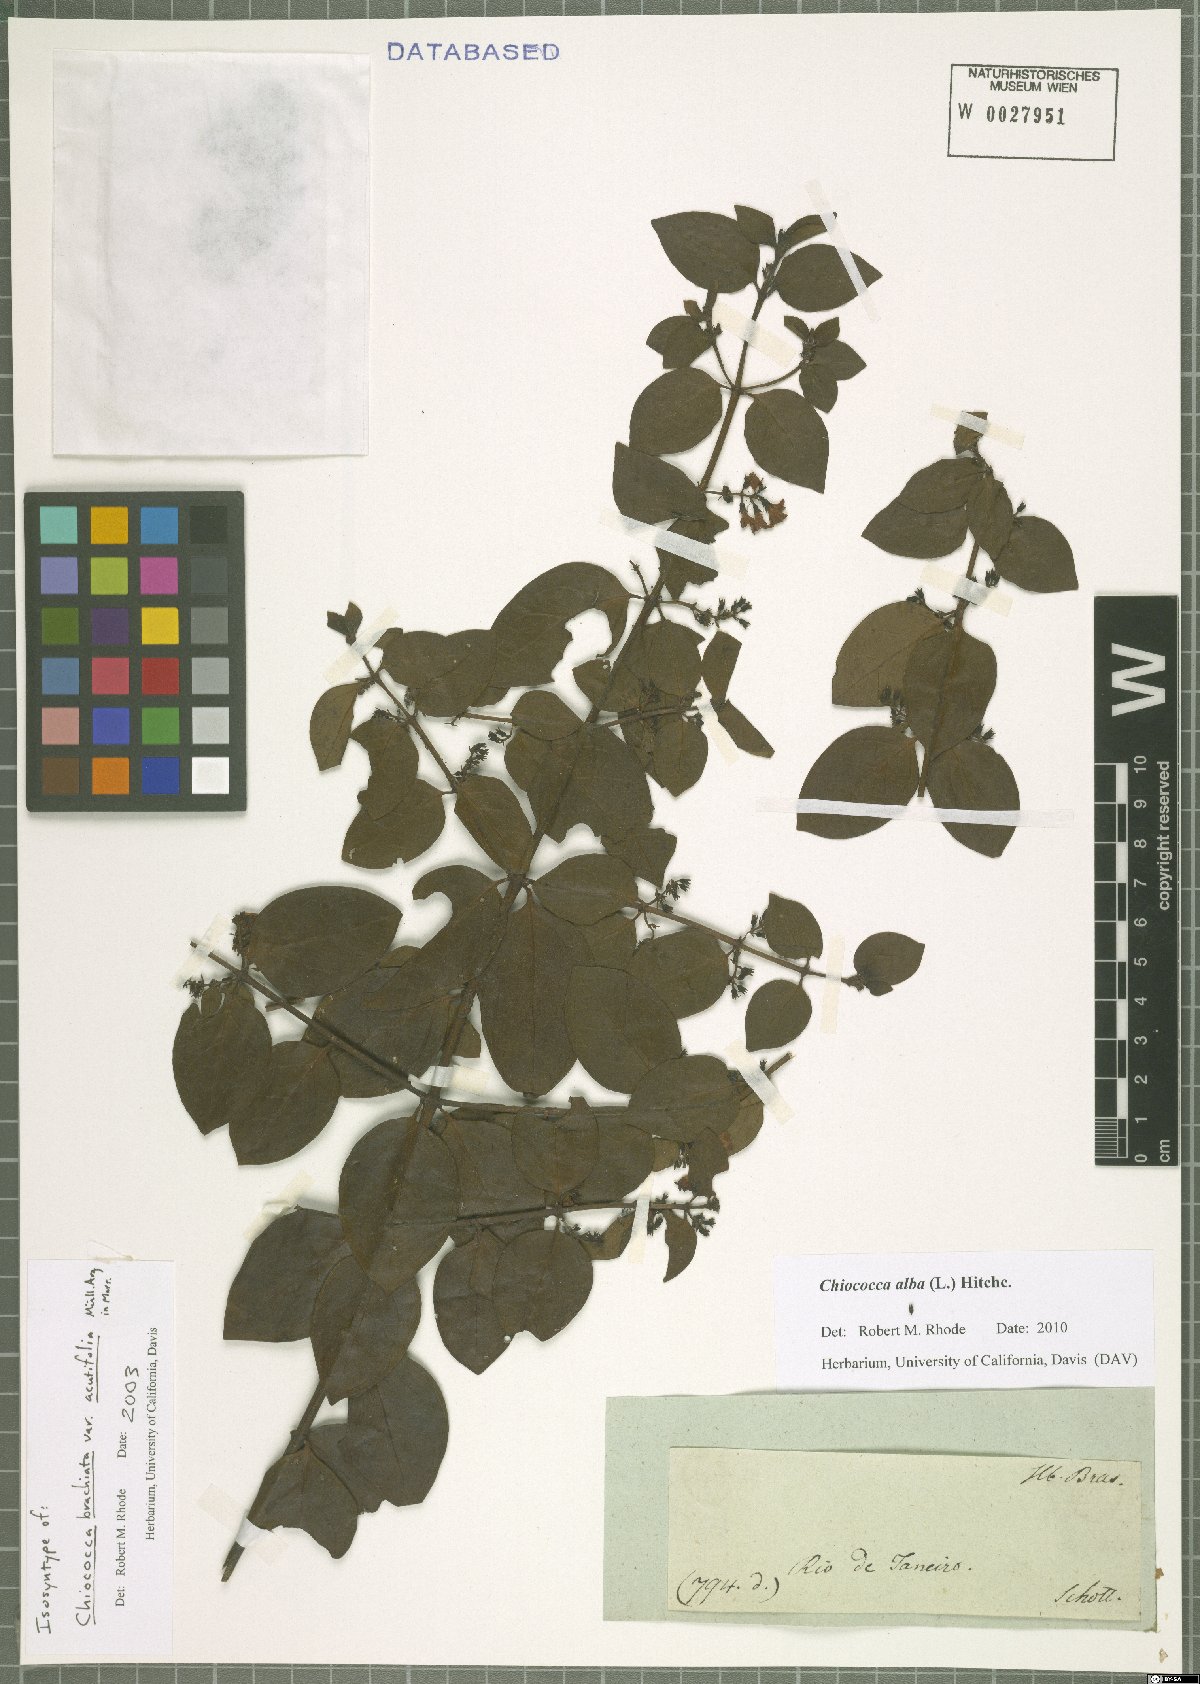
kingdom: Plantae
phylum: Tracheophyta
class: Magnoliopsida
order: Gentianales
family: Rubiaceae
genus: Chiococca
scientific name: Chiococca alba
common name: Snowberry
